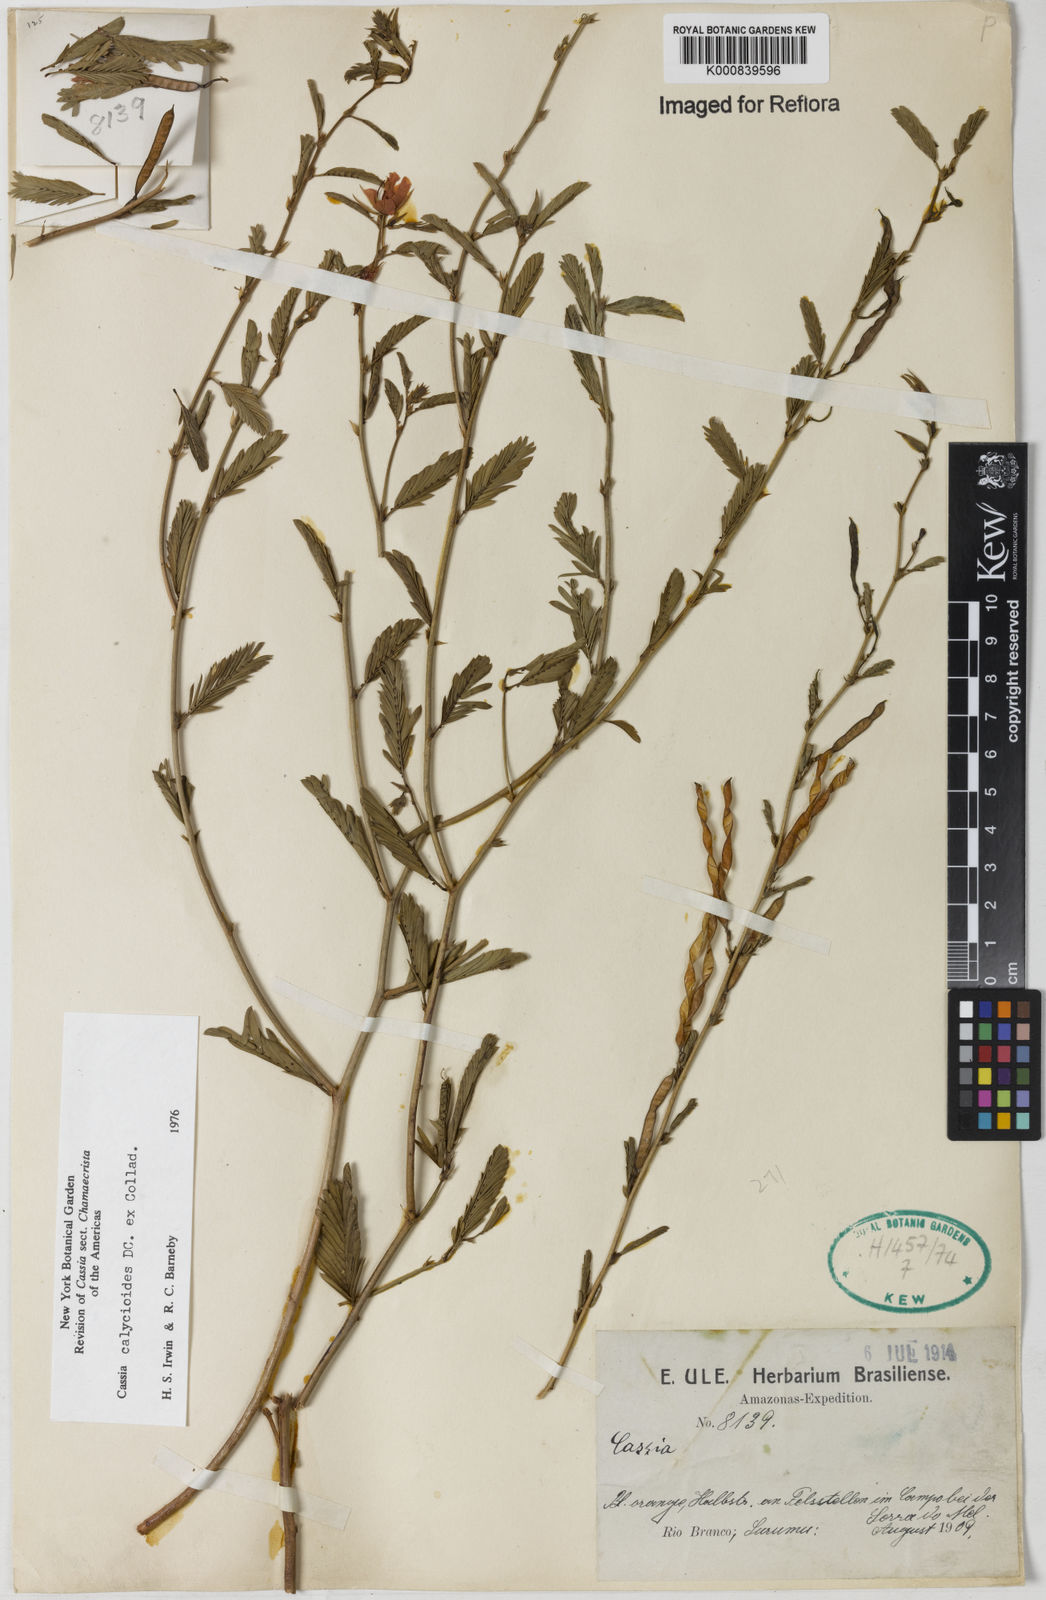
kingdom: Plantae
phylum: Tracheophyta
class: Magnoliopsida
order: Fabales
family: Fabaceae
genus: Chamaecrista
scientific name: Chamaecrista calycioides
